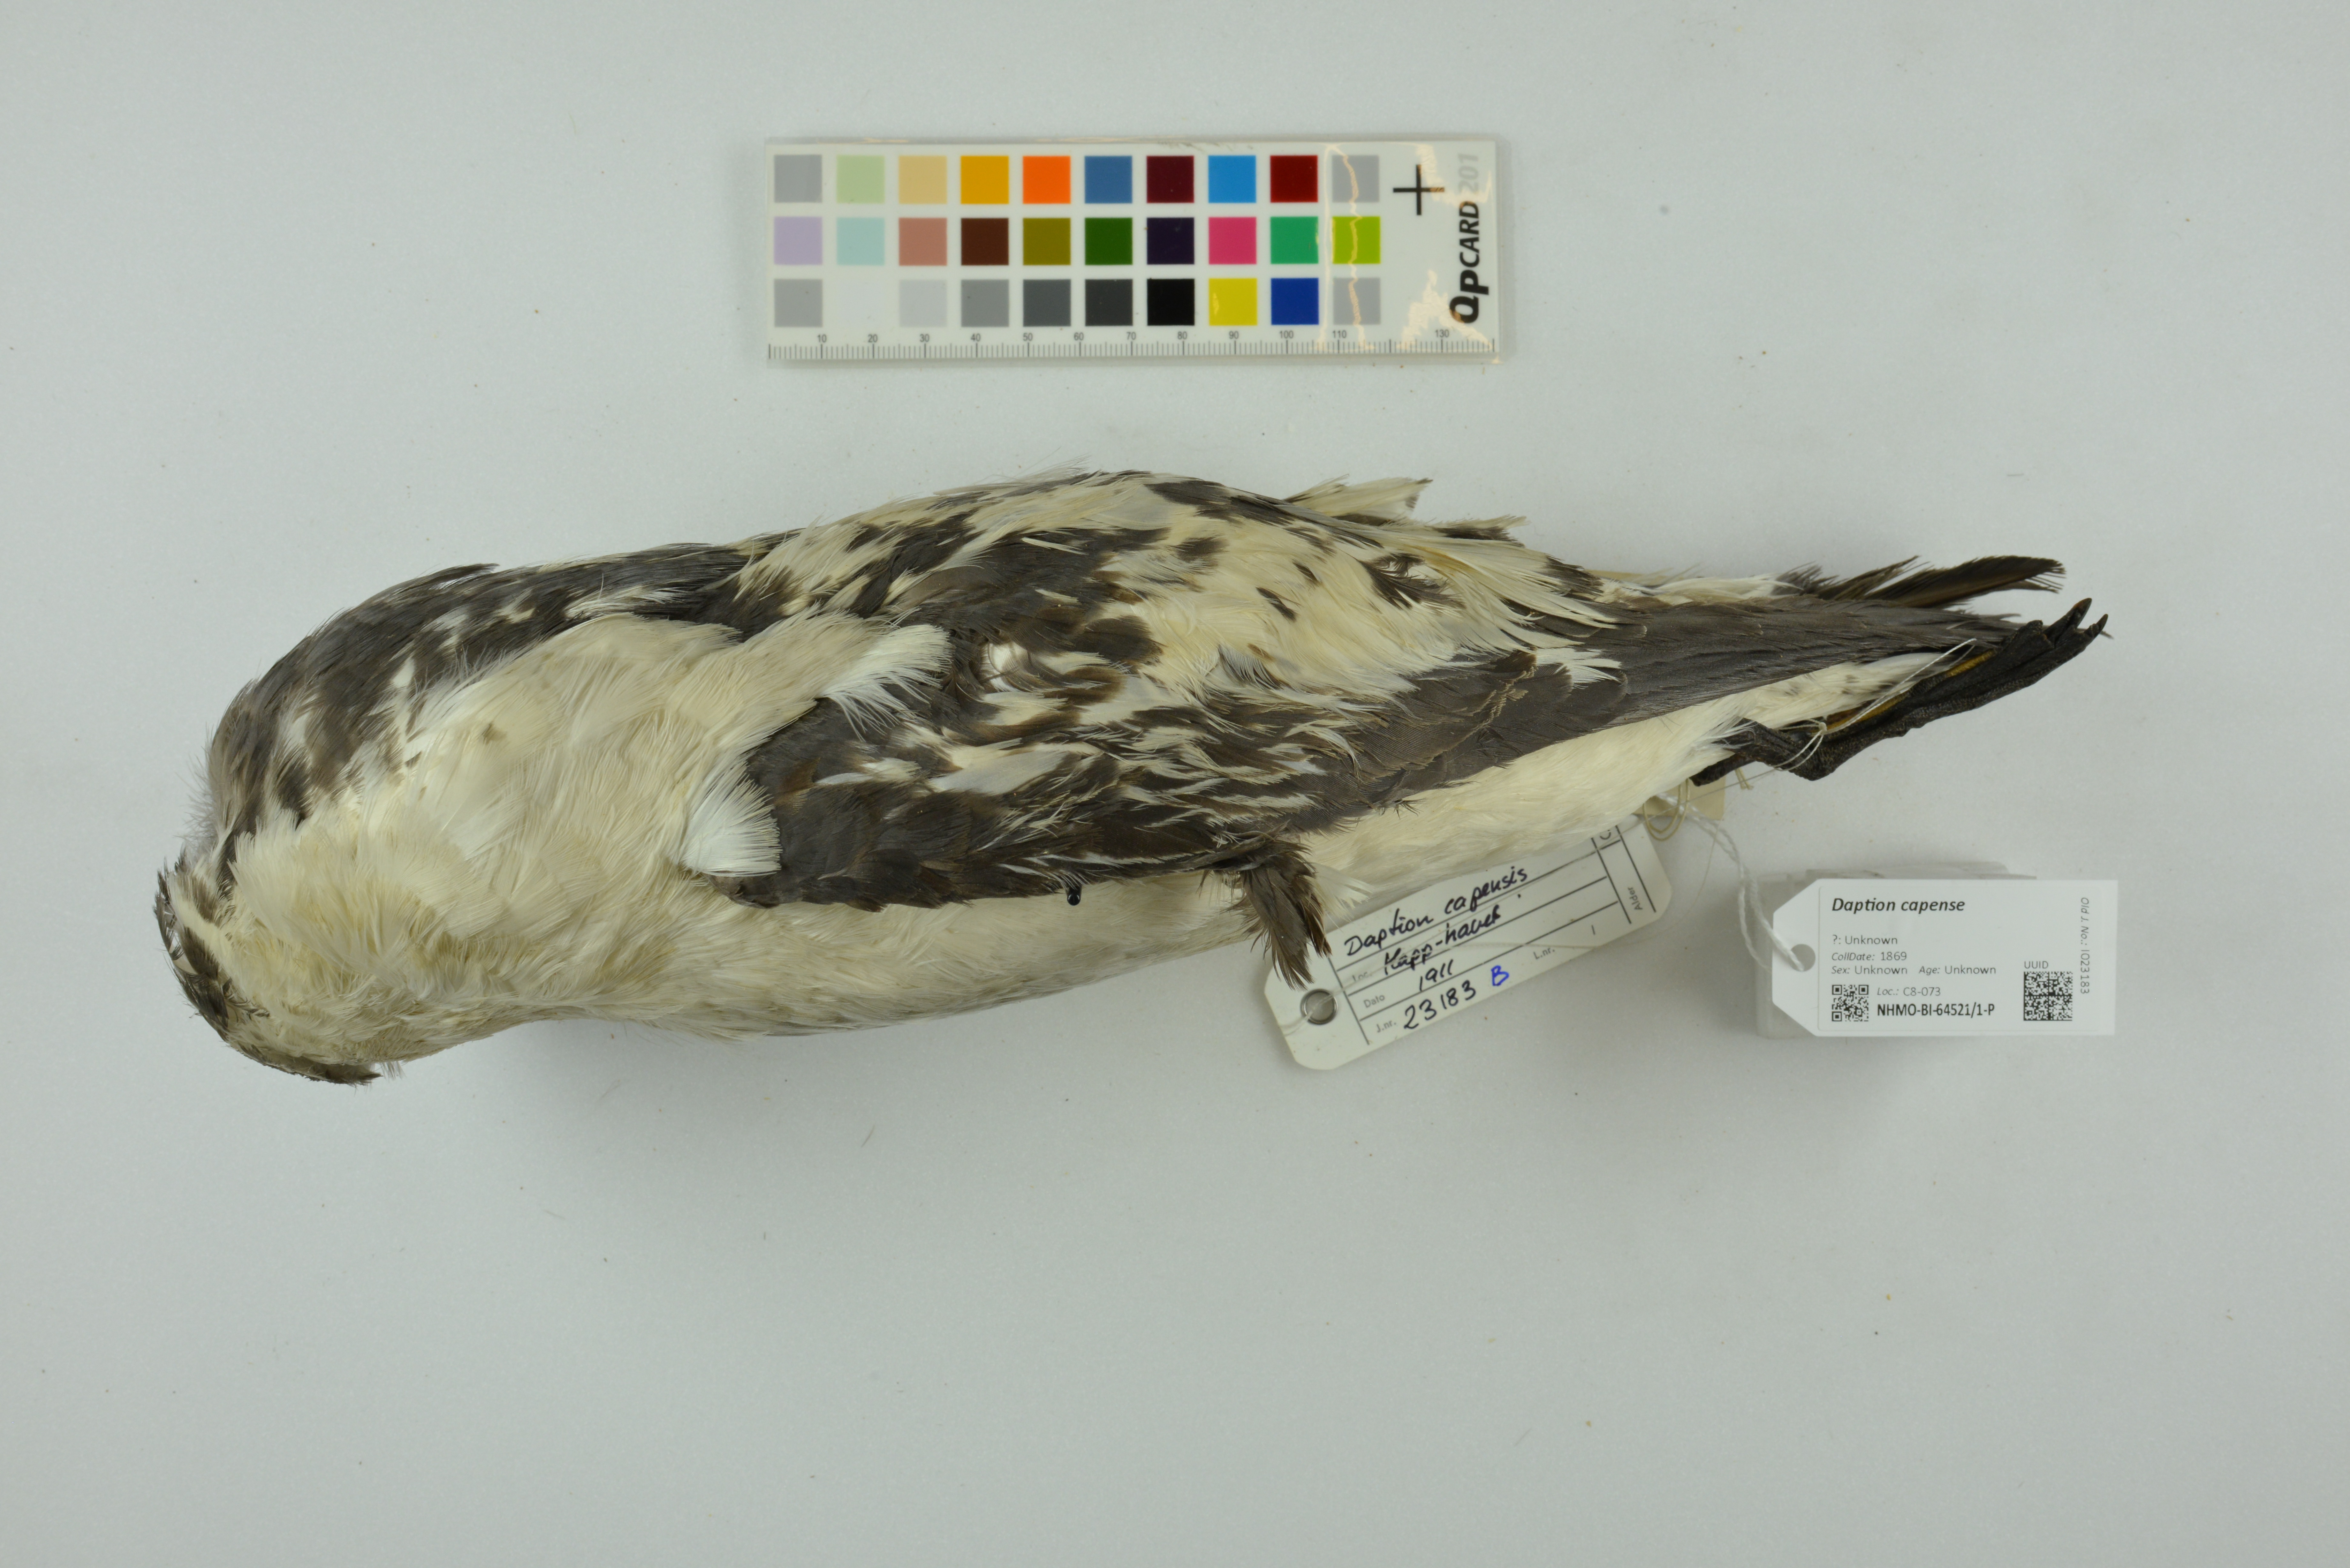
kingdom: Animalia
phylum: Chordata
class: Aves
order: Procellariiformes
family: Procellariidae
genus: Daption
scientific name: Daption capense
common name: Cape petrel
